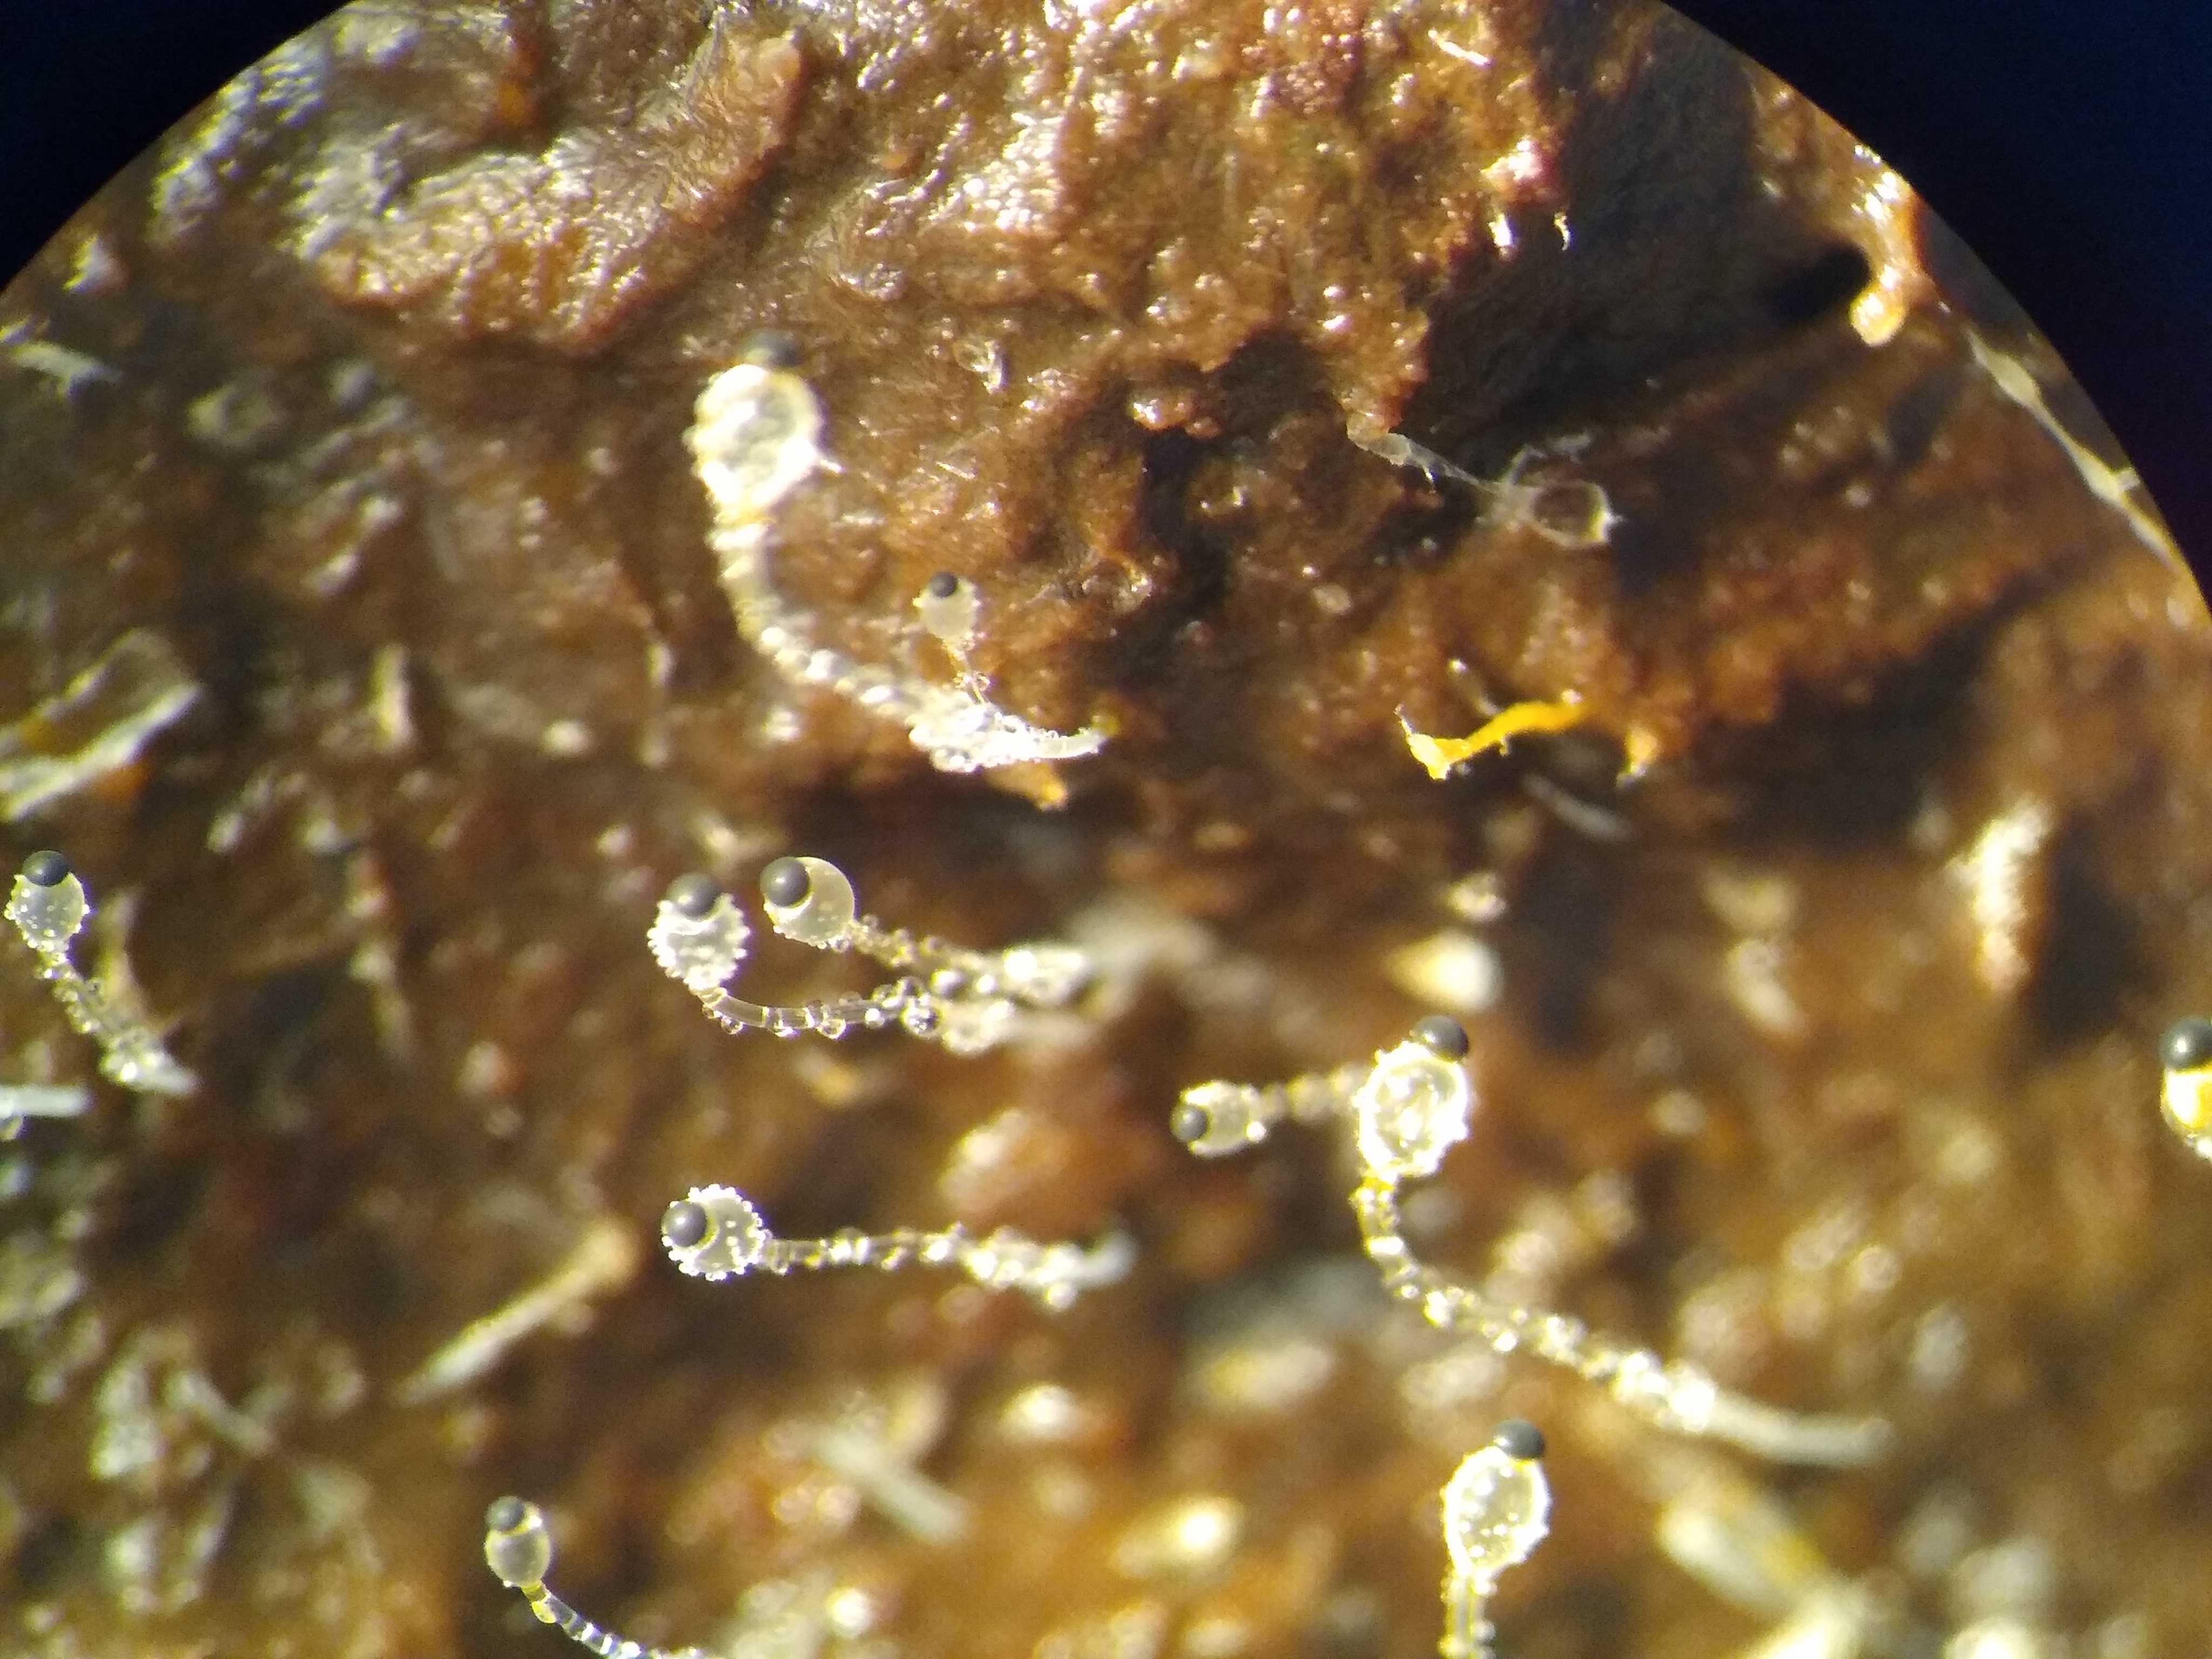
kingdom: Fungi
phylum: Mucoromycota
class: Mucoromycetes
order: Mucorales
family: Pilobolaceae
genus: Pilobolus
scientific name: Pilobolus
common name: boldkaster
